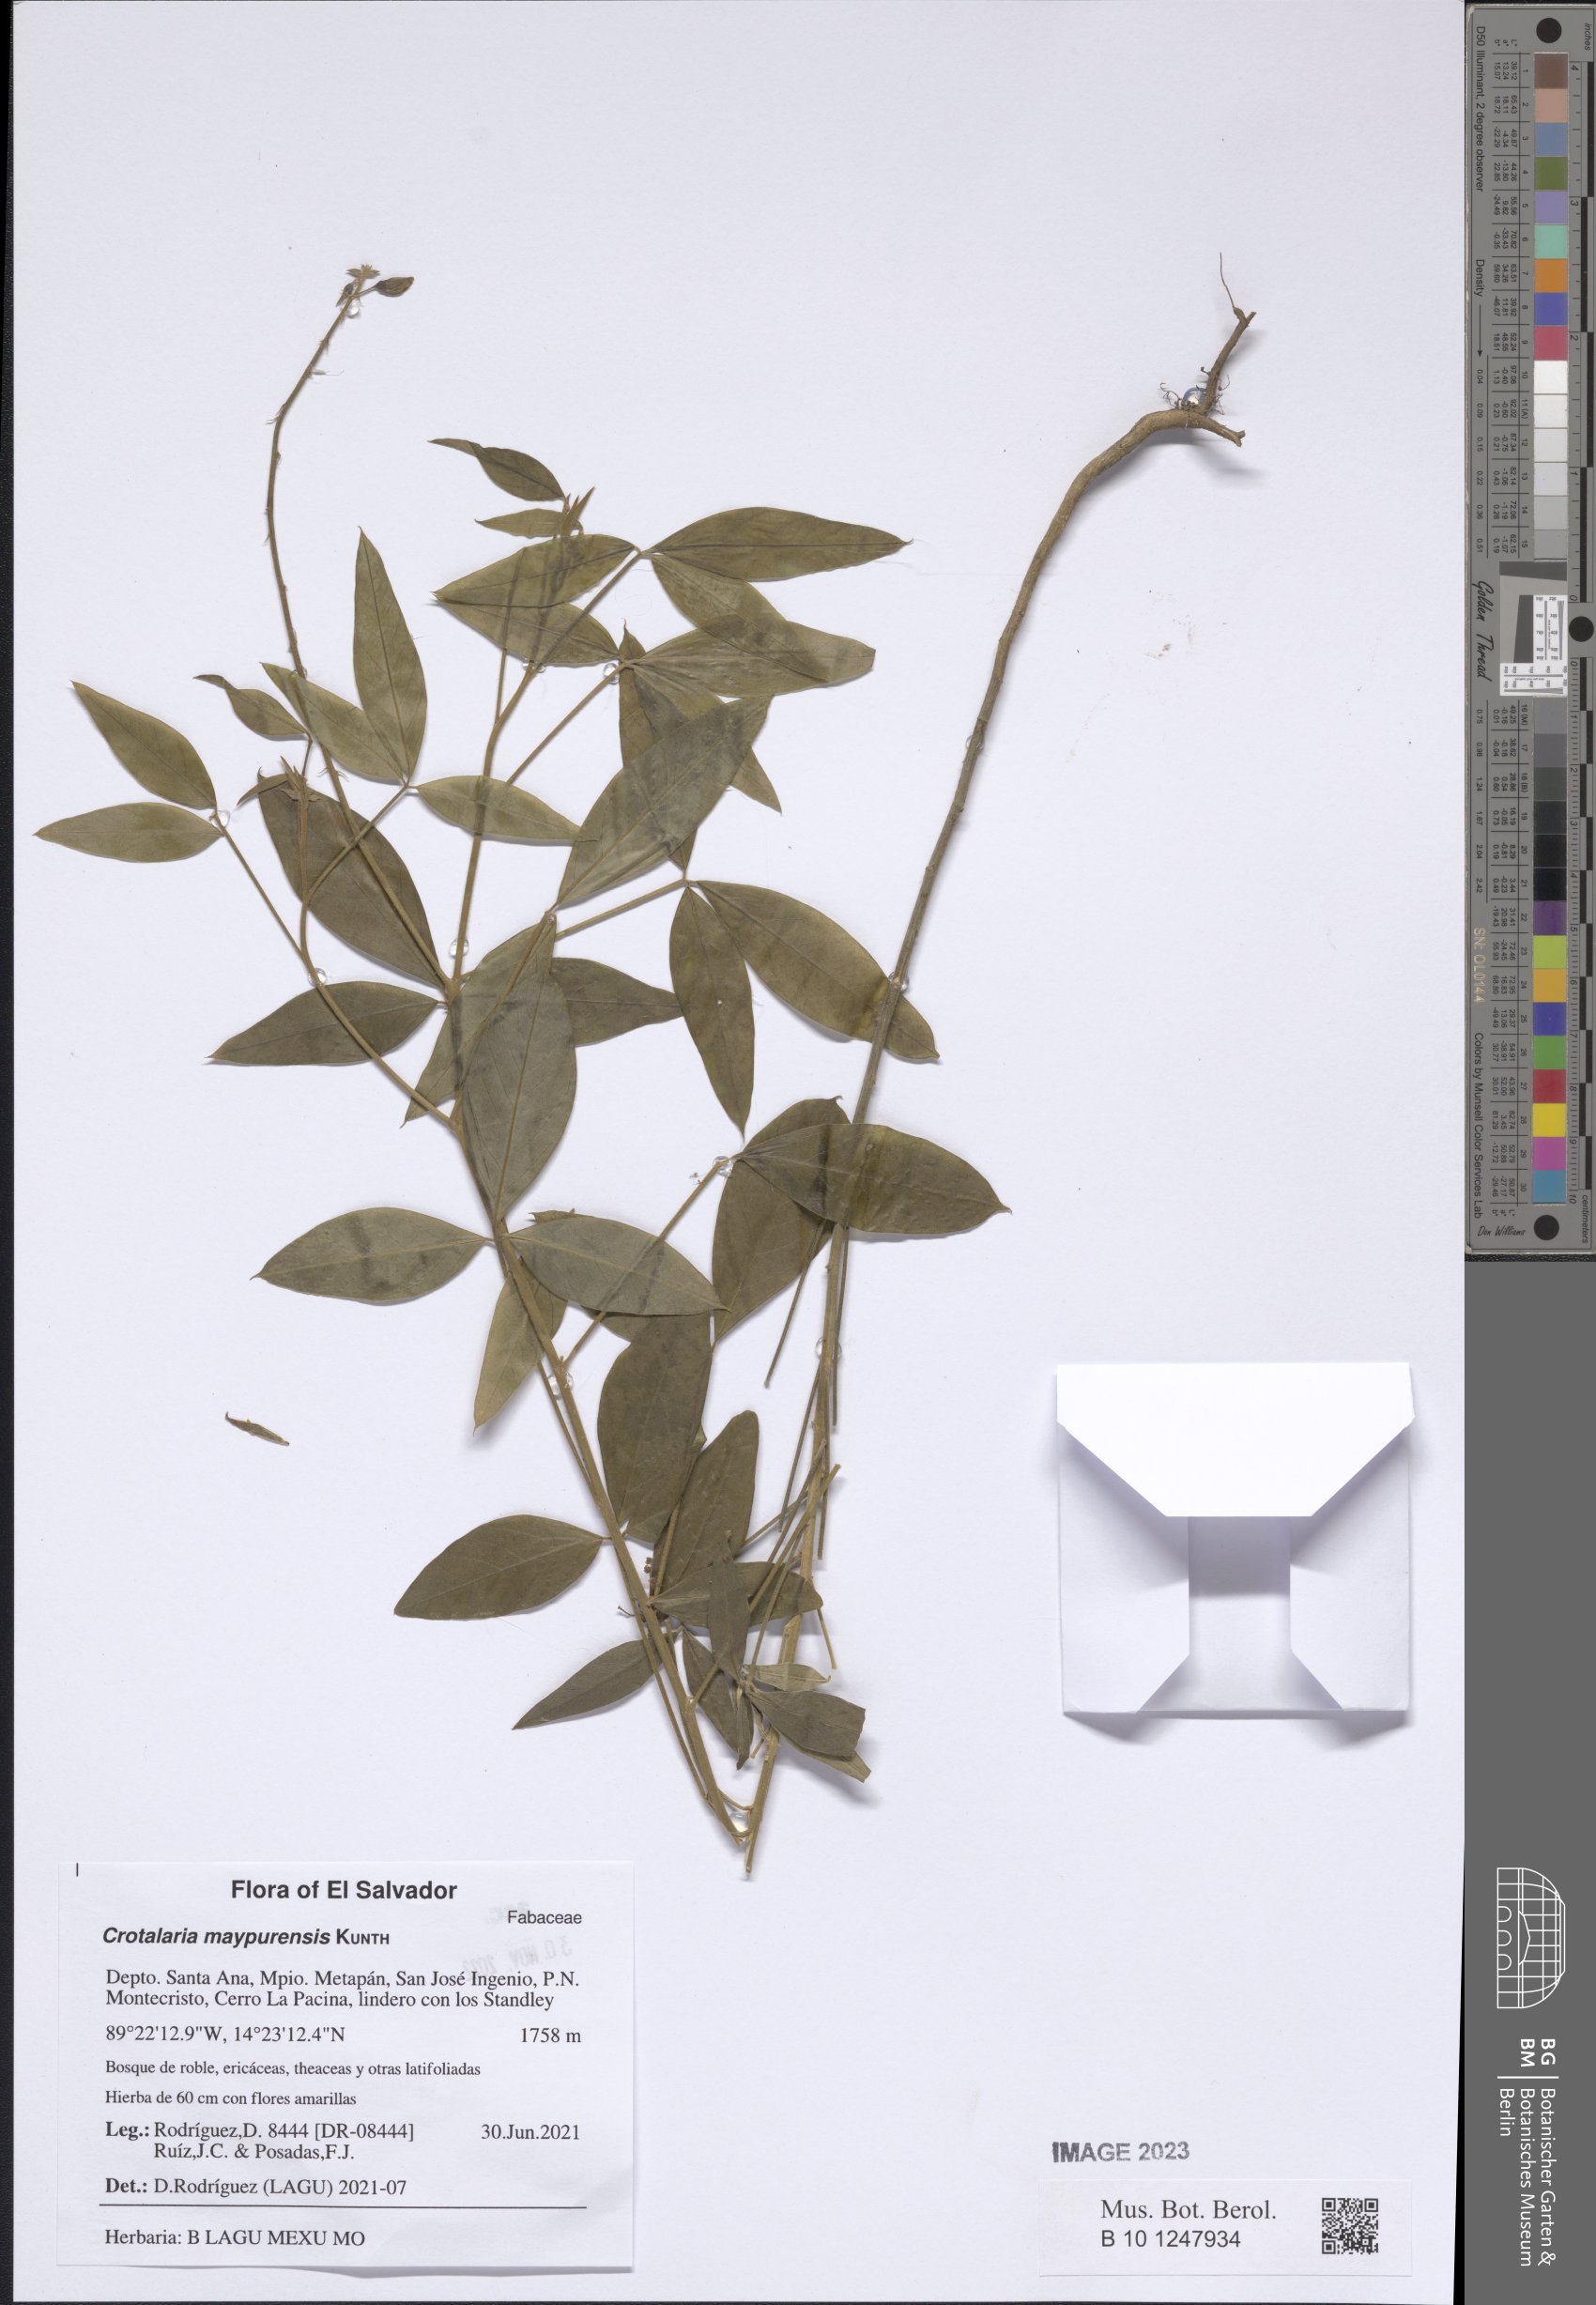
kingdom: Plantae
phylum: Tracheophyta
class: Magnoliopsida
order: Fabales
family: Fabaceae
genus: Crotalaria
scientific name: Crotalaria maypurensis
